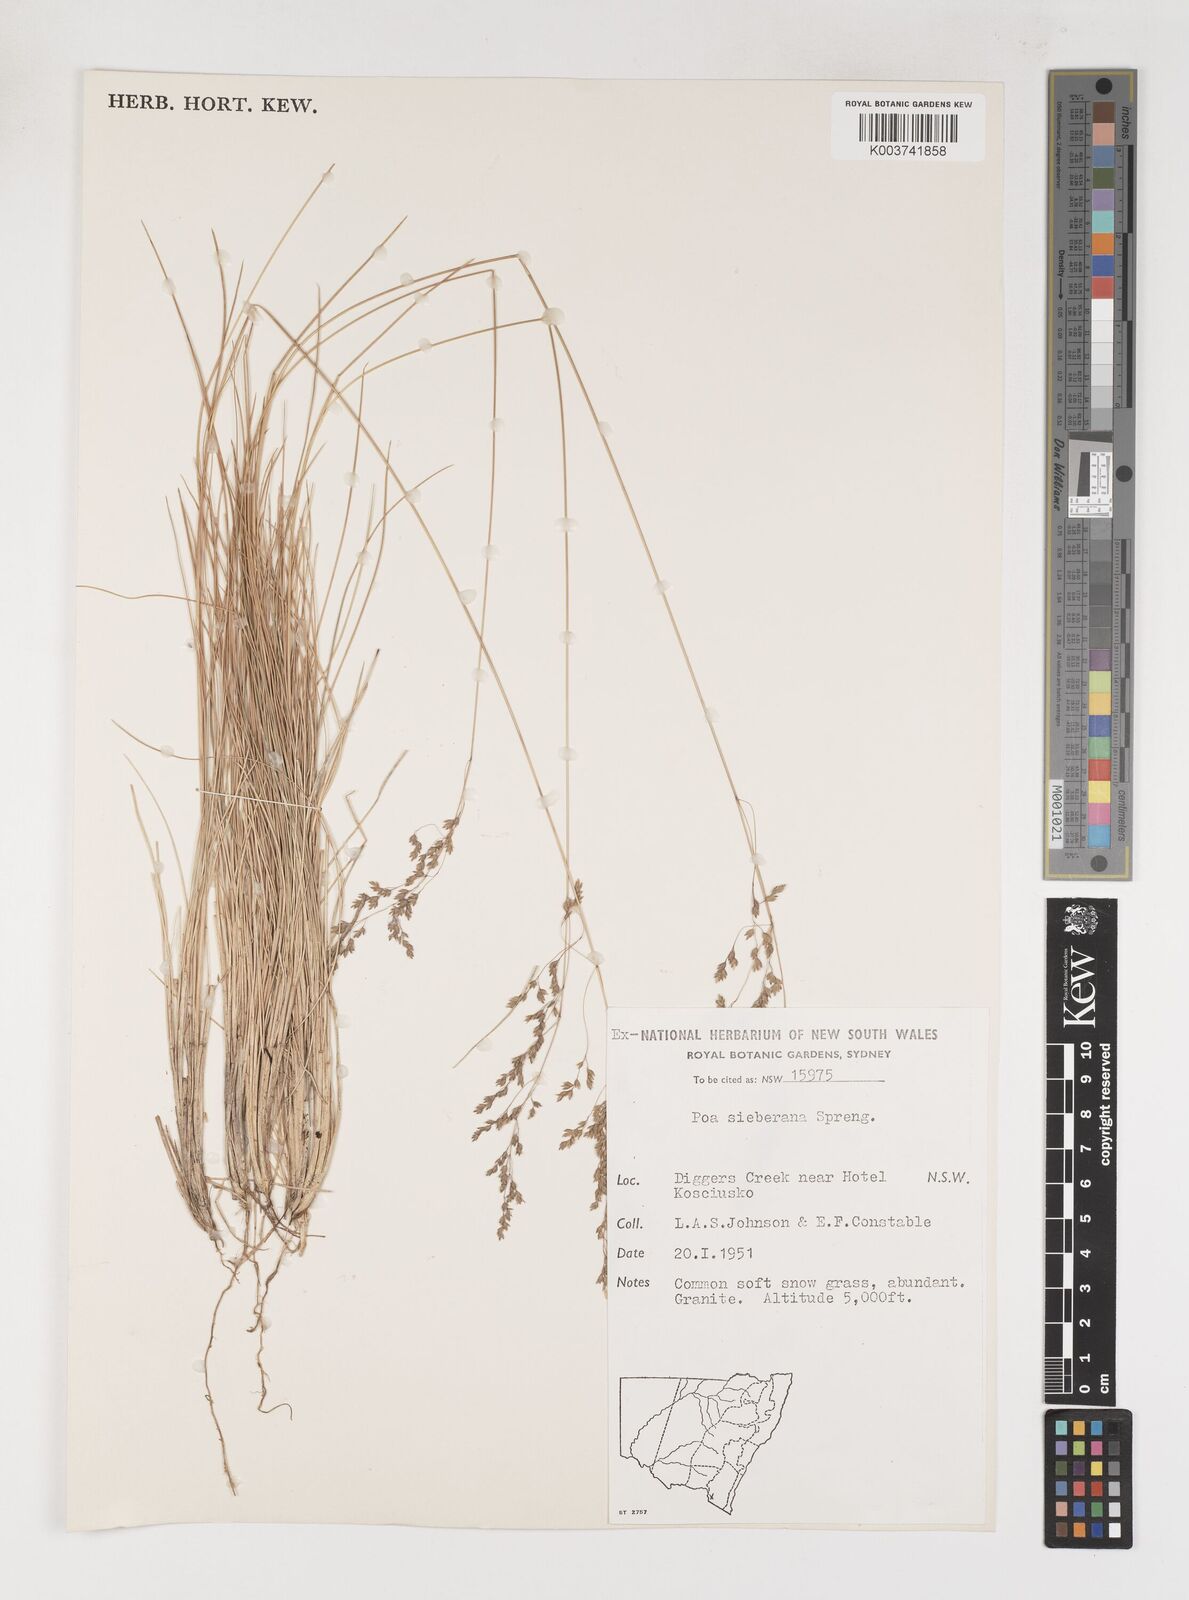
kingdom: Plantae
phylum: Tracheophyta
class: Liliopsida
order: Poales
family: Poaceae
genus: Poa
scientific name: Poa sieberiana
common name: Tussock poa
